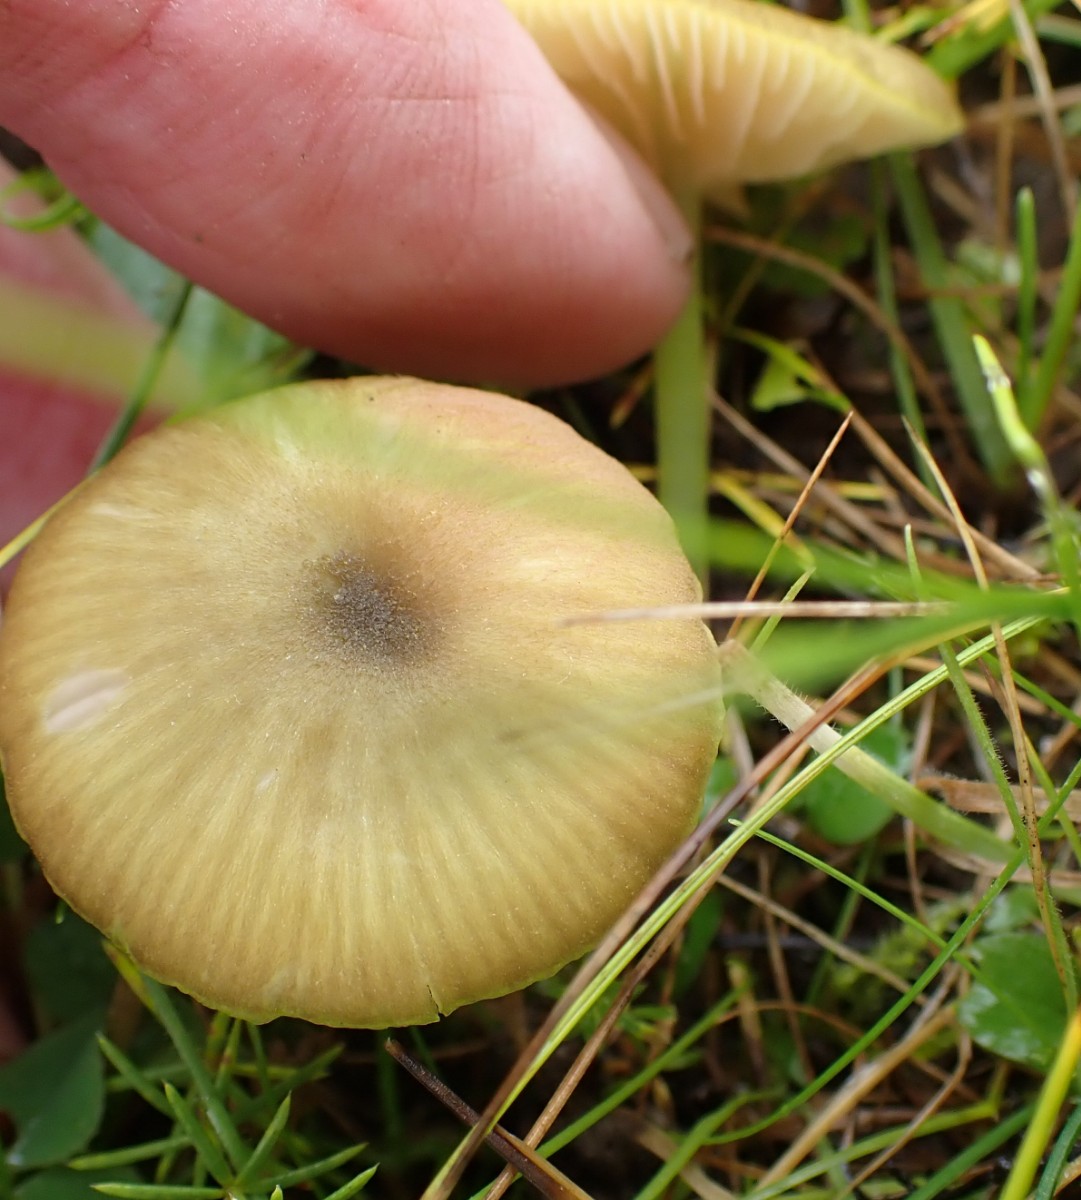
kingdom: Fungi
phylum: Basidiomycota
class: Agaricomycetes
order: Agaricales
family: Entolomataceae
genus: Entoloma
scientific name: Entoloma incanum
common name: grøngul rødblad
